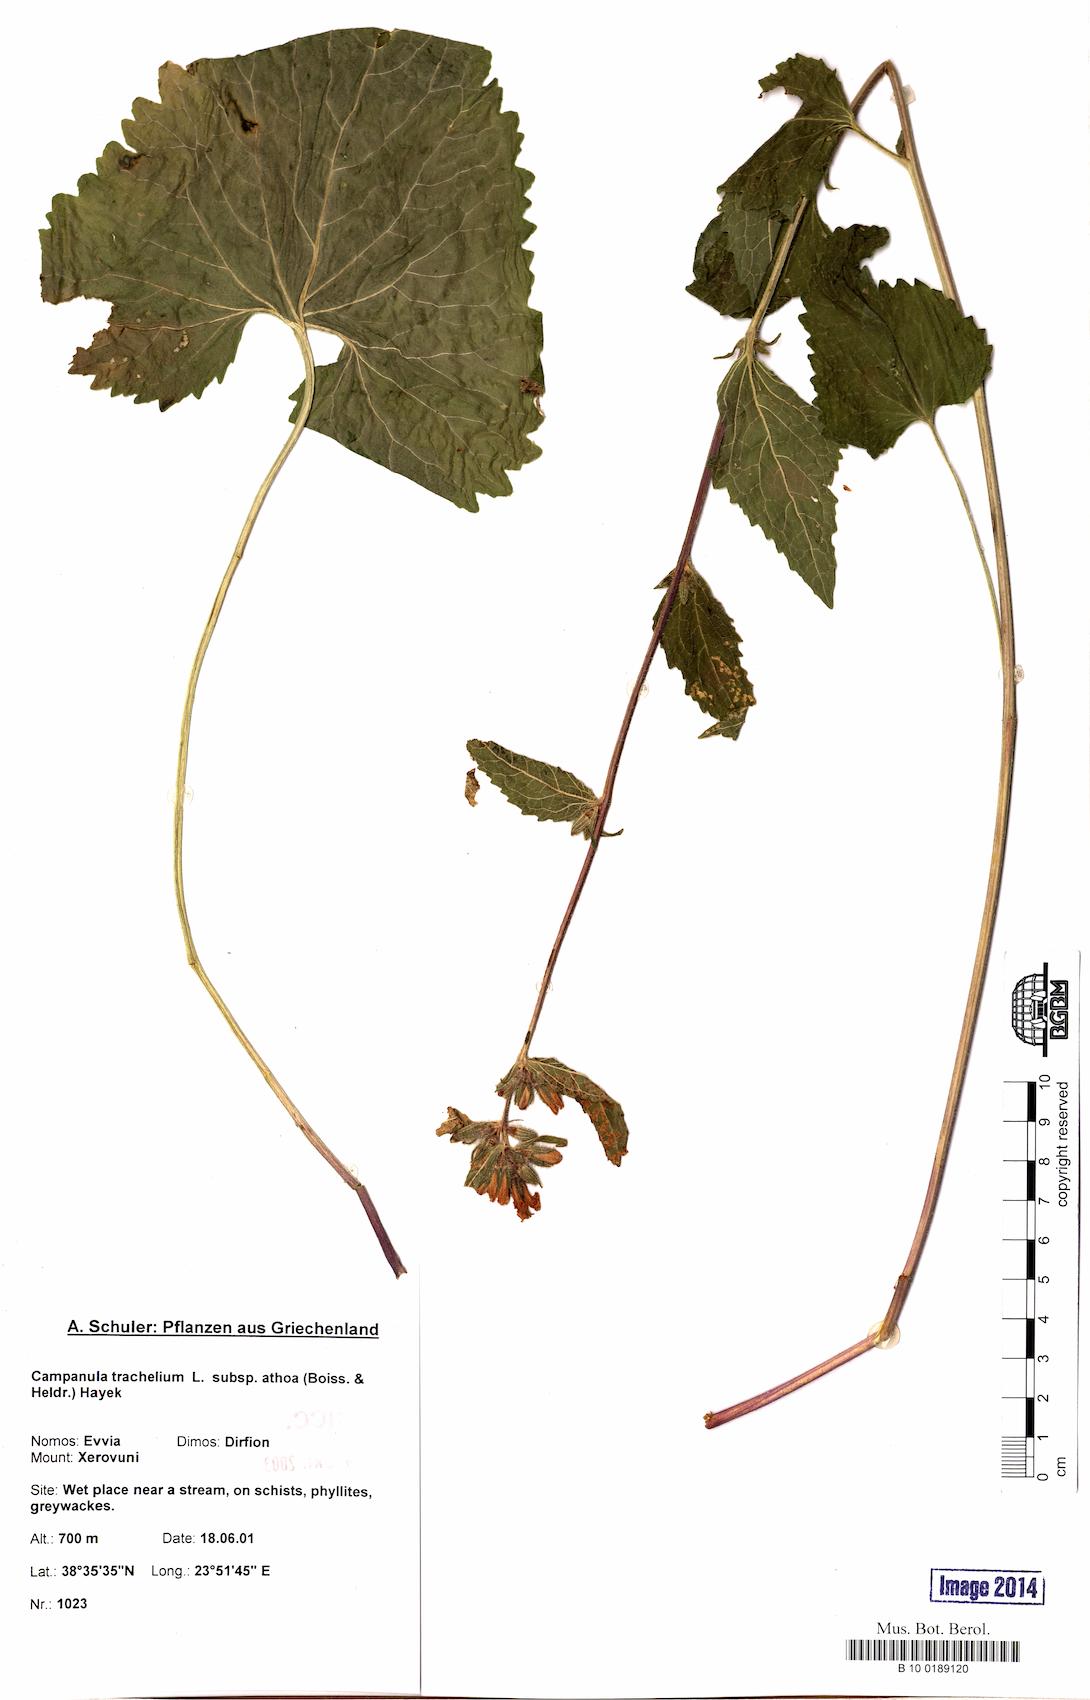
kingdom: Plantae
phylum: Tracheophyta
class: Magnoliopsida
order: Asterales
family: Campanulaceae
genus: Campanula
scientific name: Campanula trachelium
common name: Nettle-leaved bellflower
